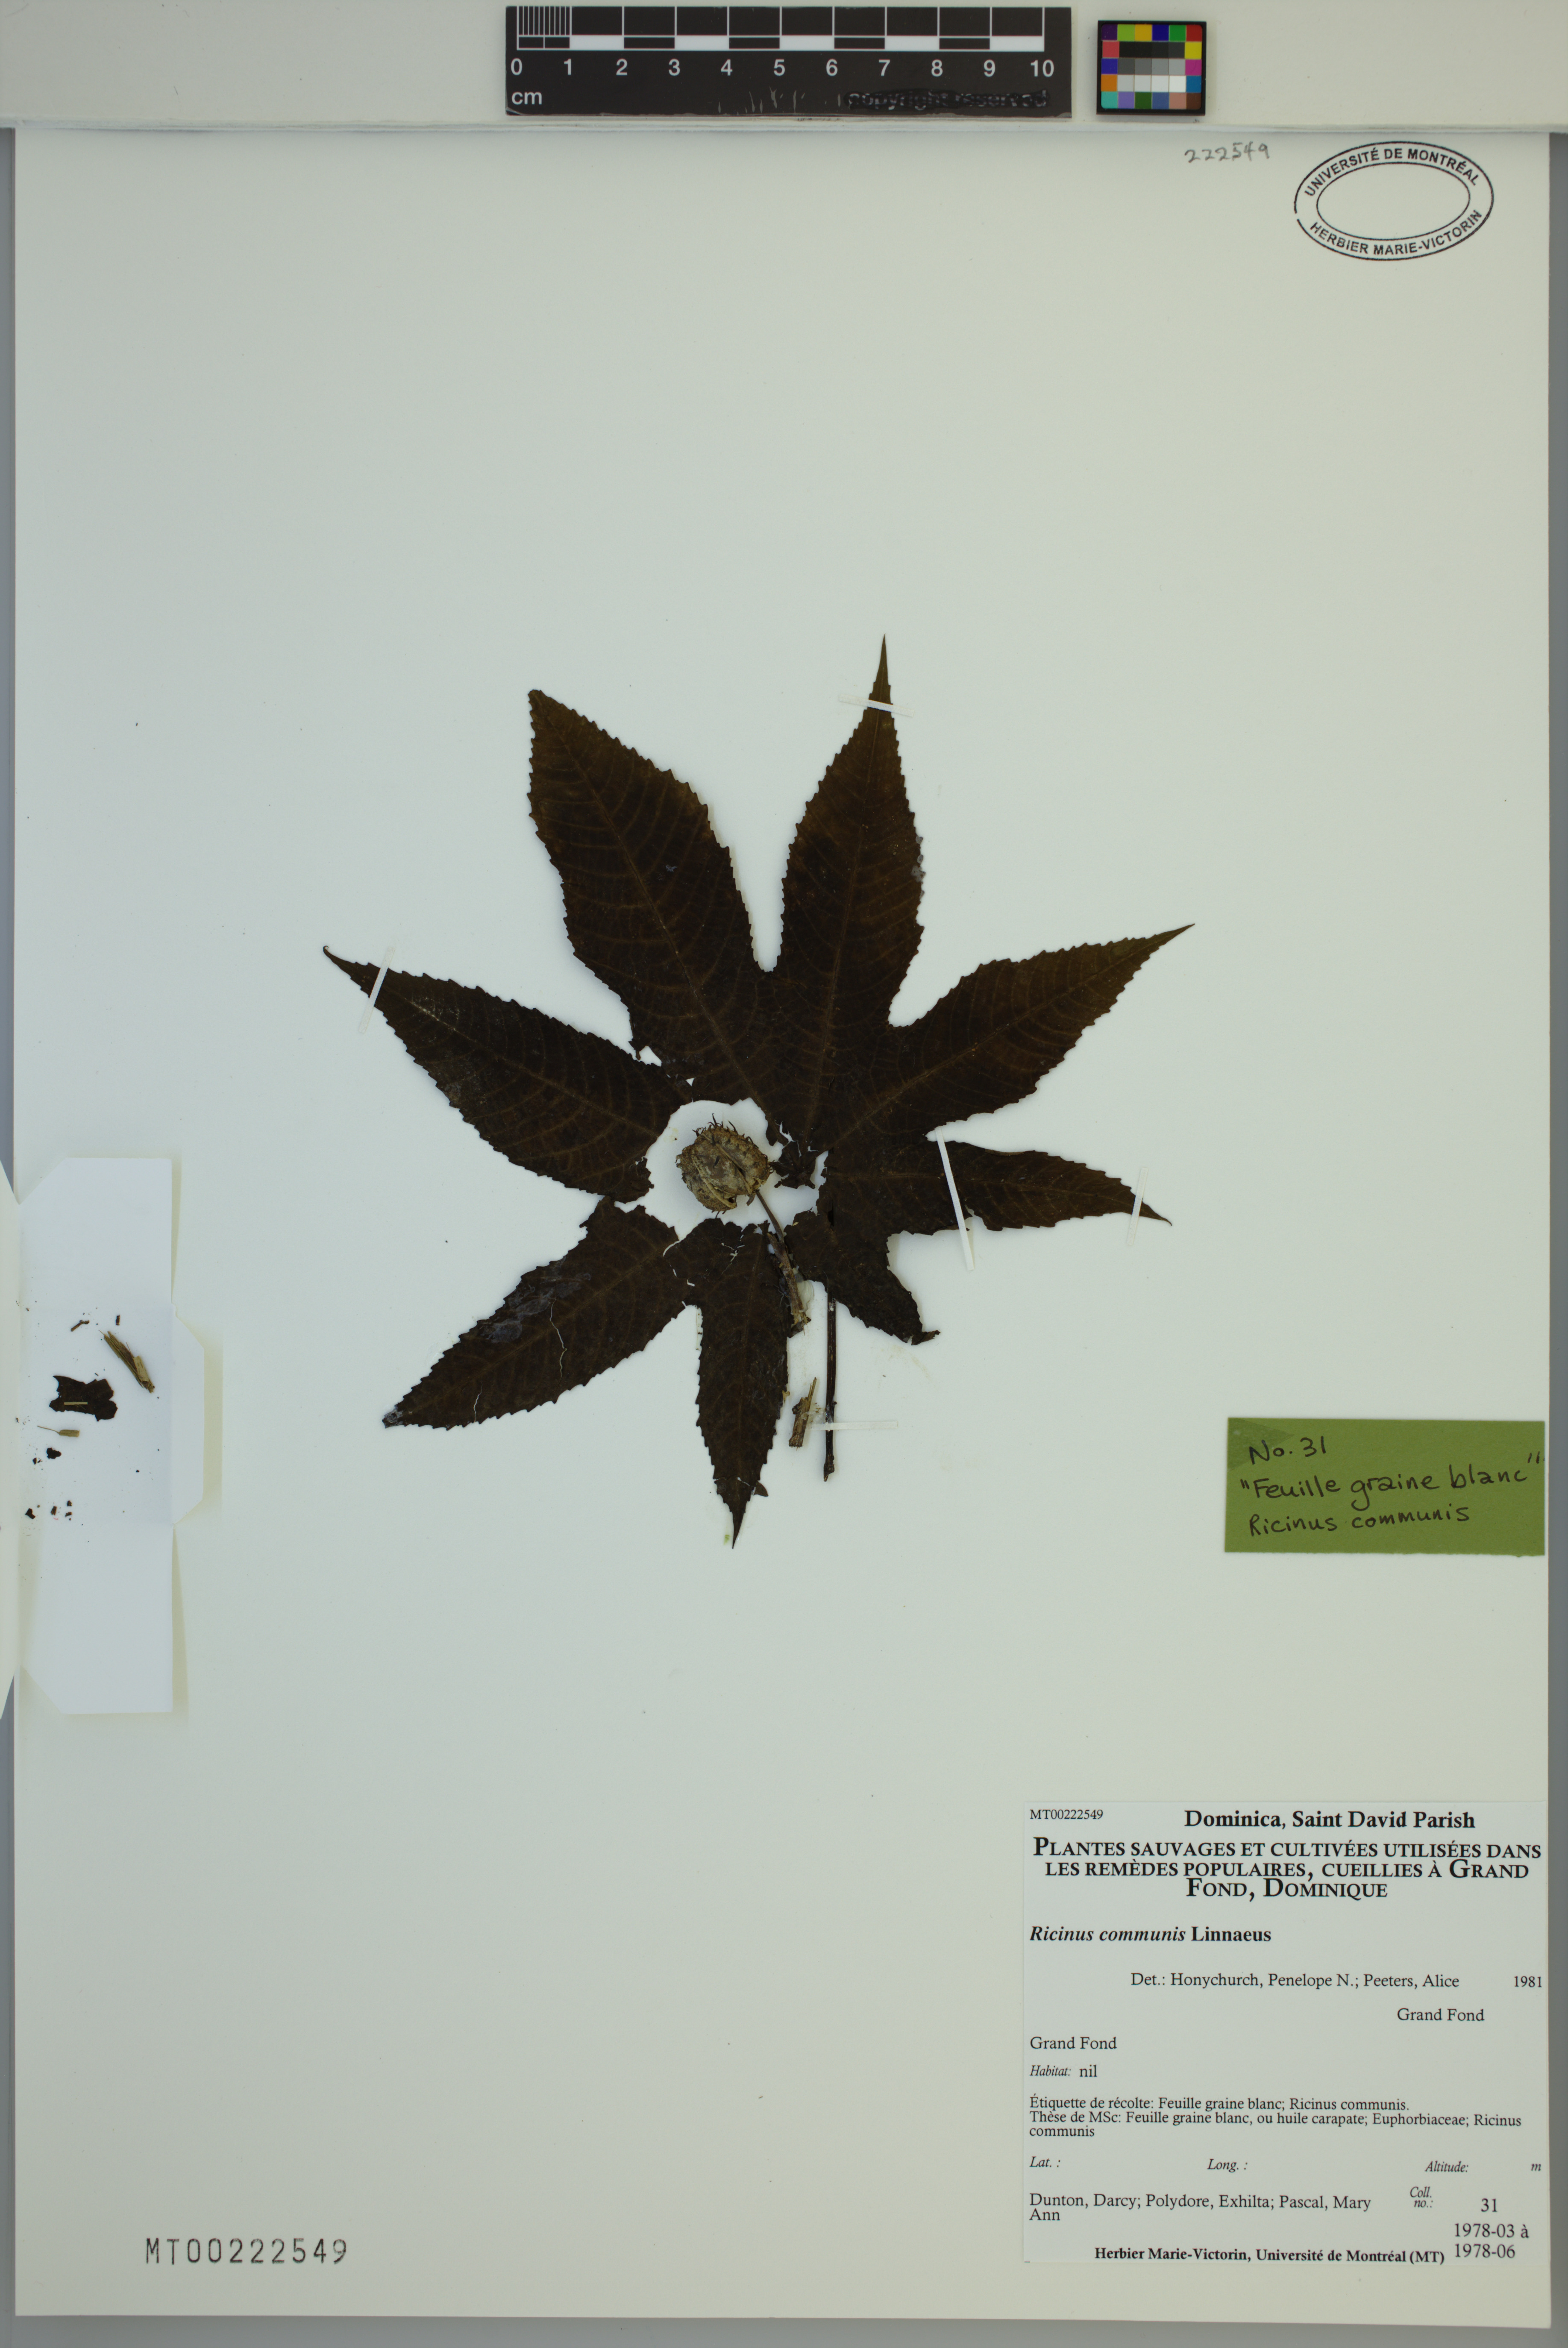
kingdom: Plantae
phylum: Tracheophyta
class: Magnoliopsida
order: Malpighiales
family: Euphorbiaceae
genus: Ricinus
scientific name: Ricinus communis
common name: Castor-oil-plant
